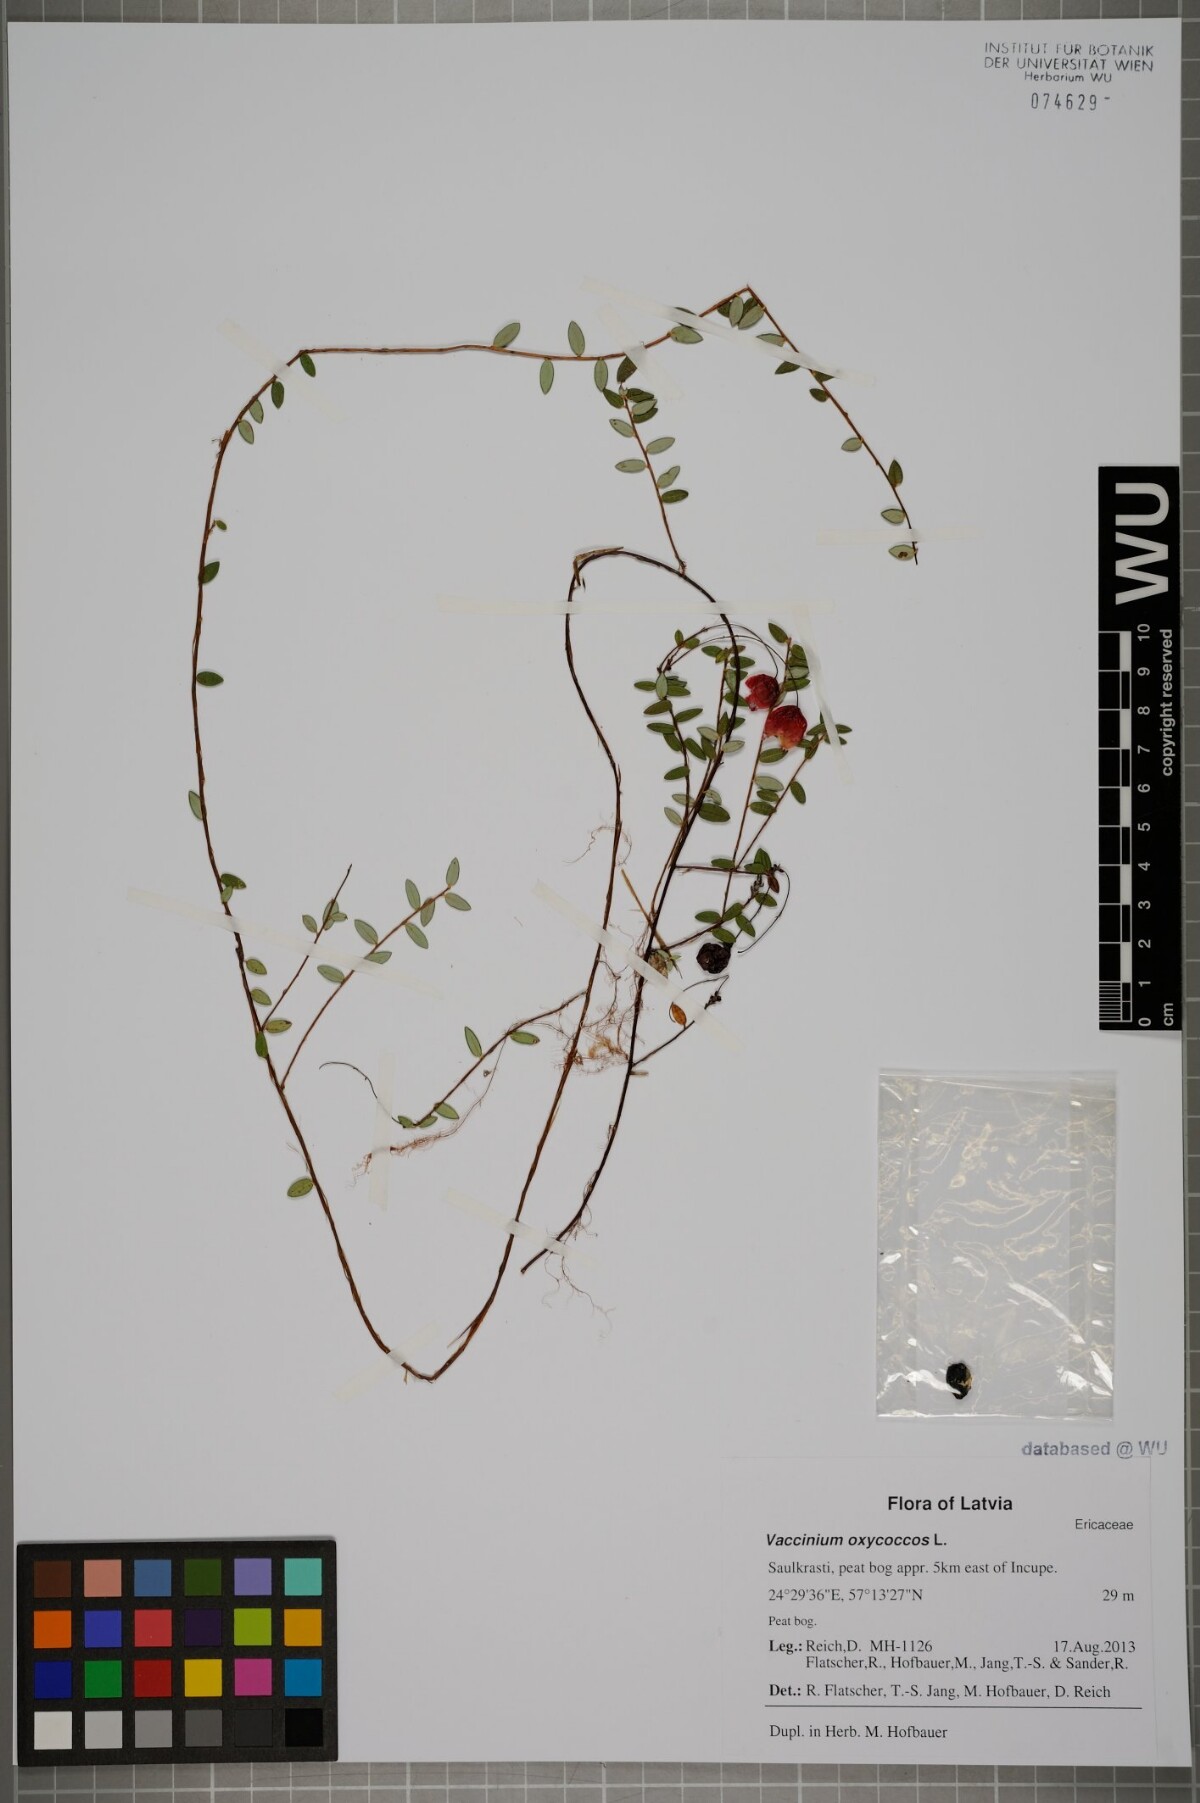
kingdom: Plantae
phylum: Tracheophyta
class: Magnoliopsida
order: Ericales
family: Ericaceae
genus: Vaccinium
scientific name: Vaccinium oxycoccos
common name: Cranberry
